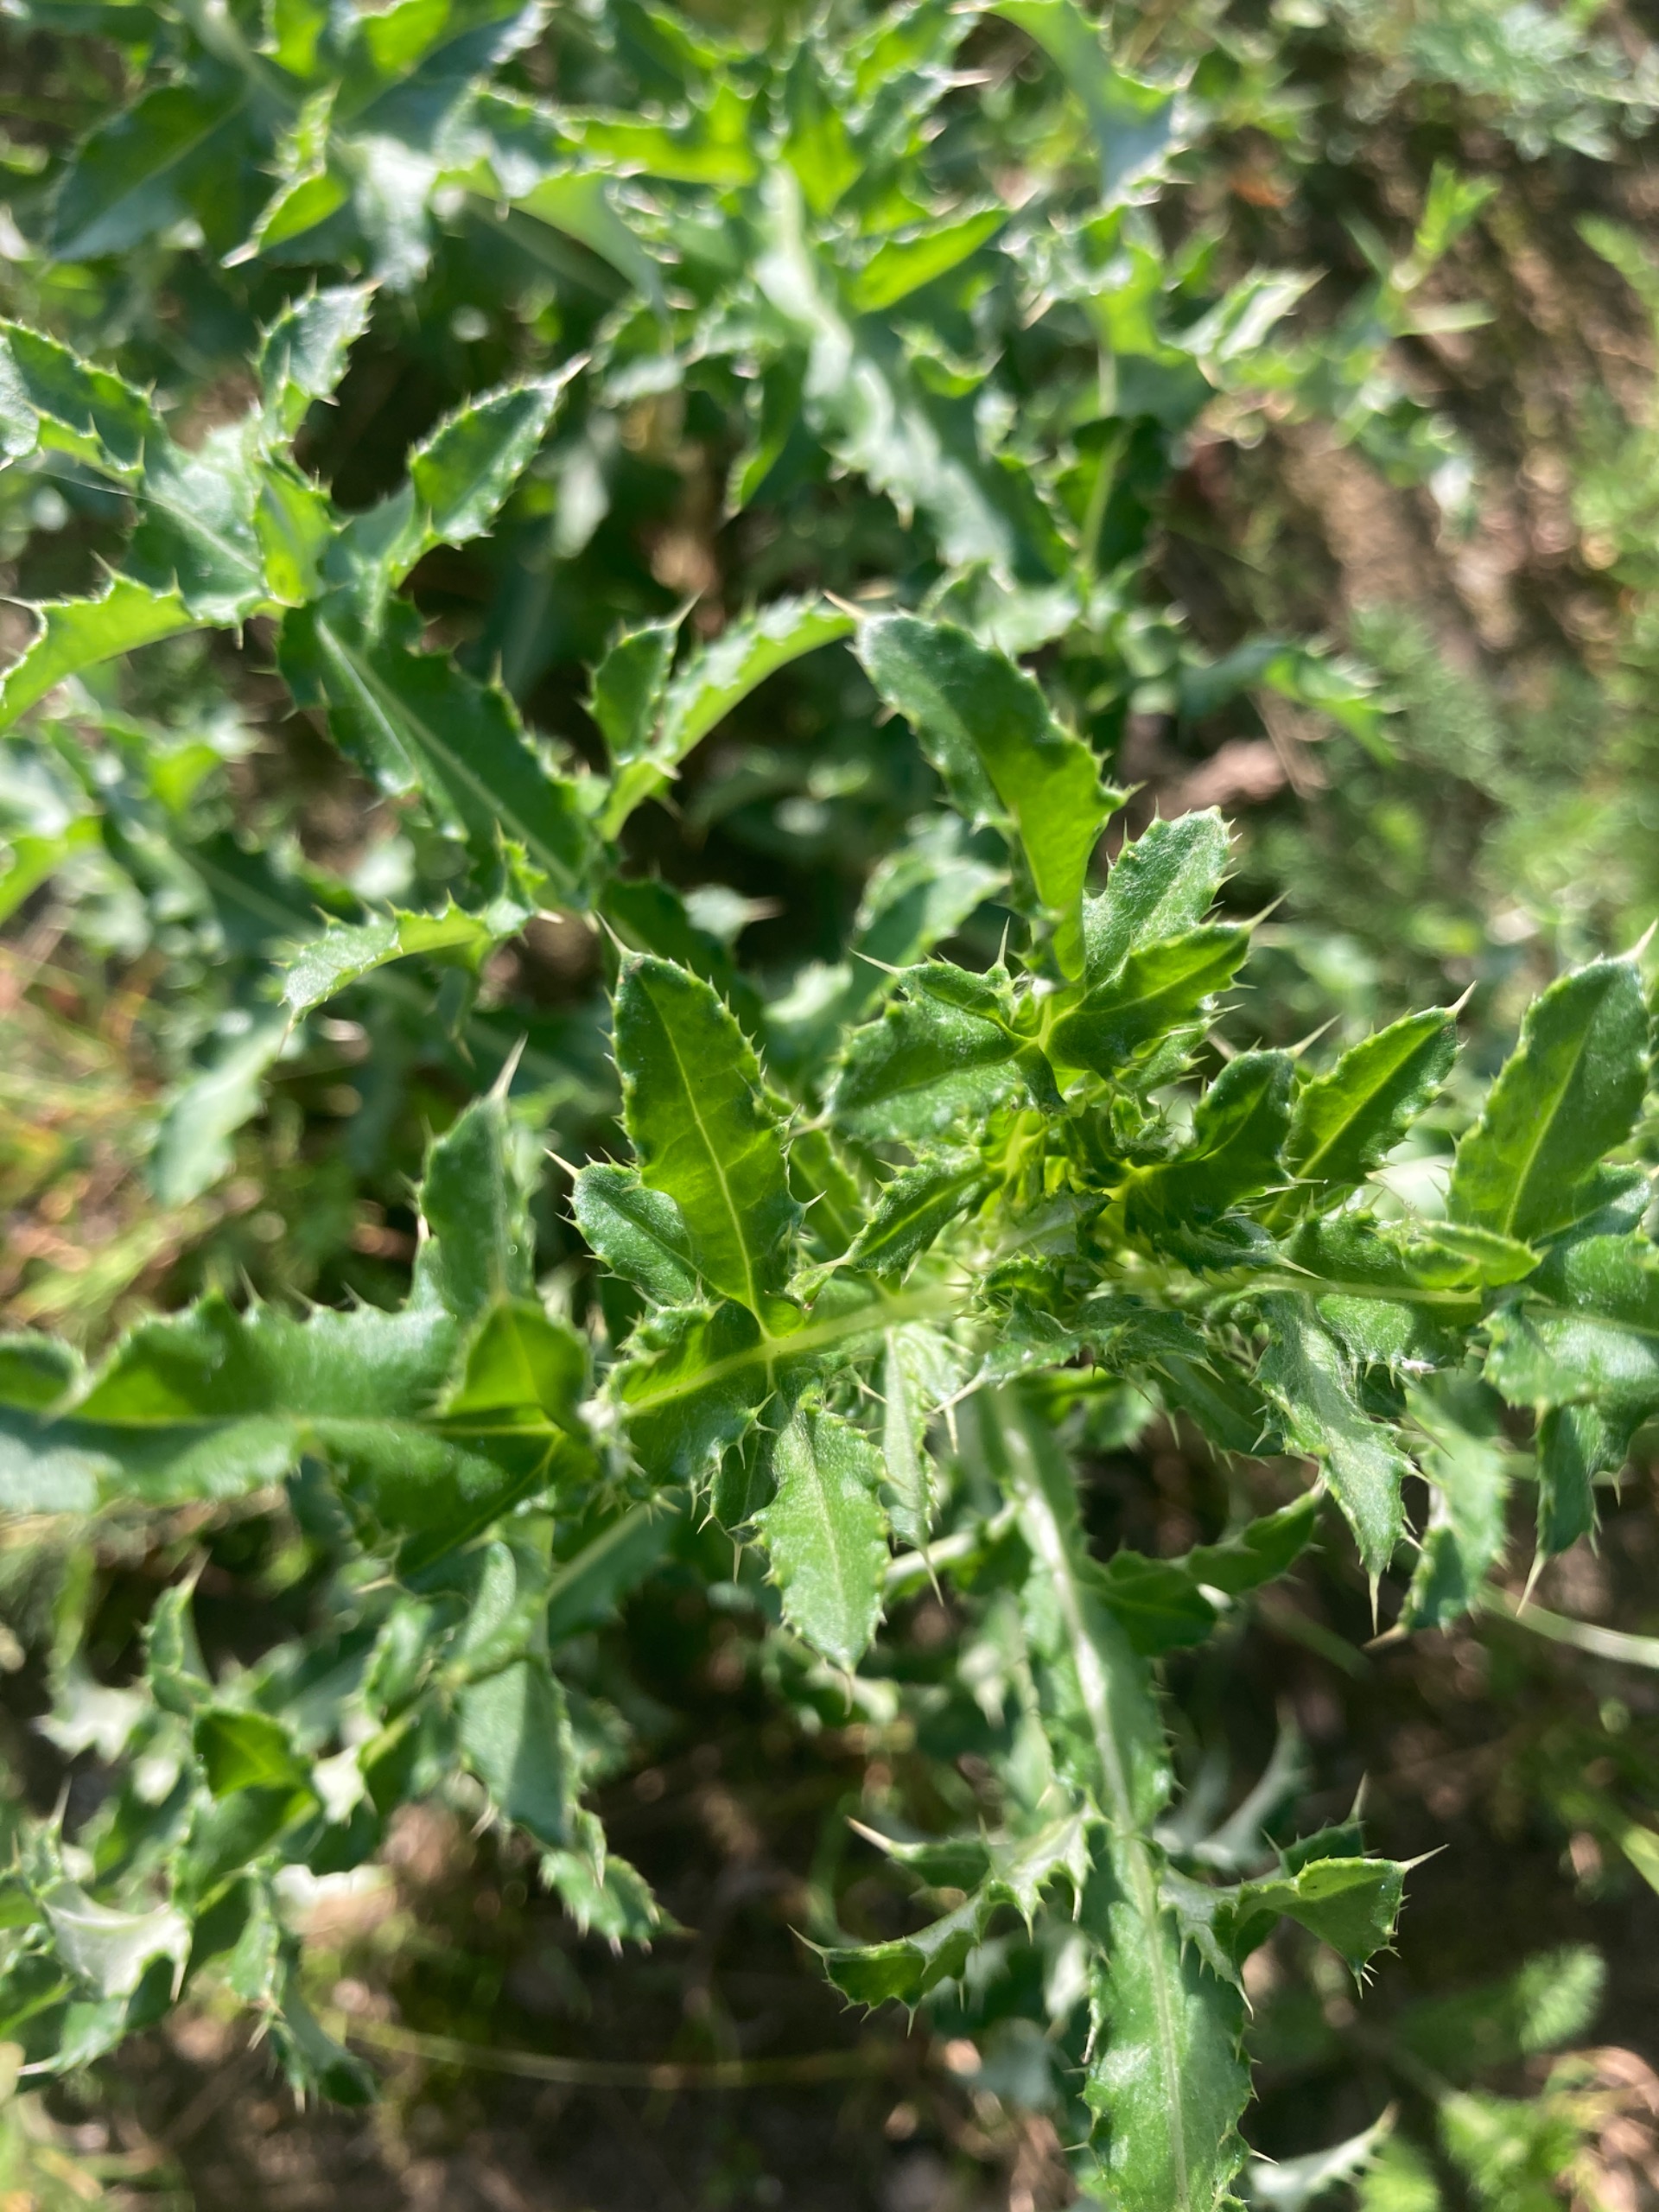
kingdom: Plantae
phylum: Tracheophyta
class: Magnoliopsida
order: Asterales
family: Asteraceae
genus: Cirsium
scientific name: Cirsium arvense
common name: Ager-tidsel
